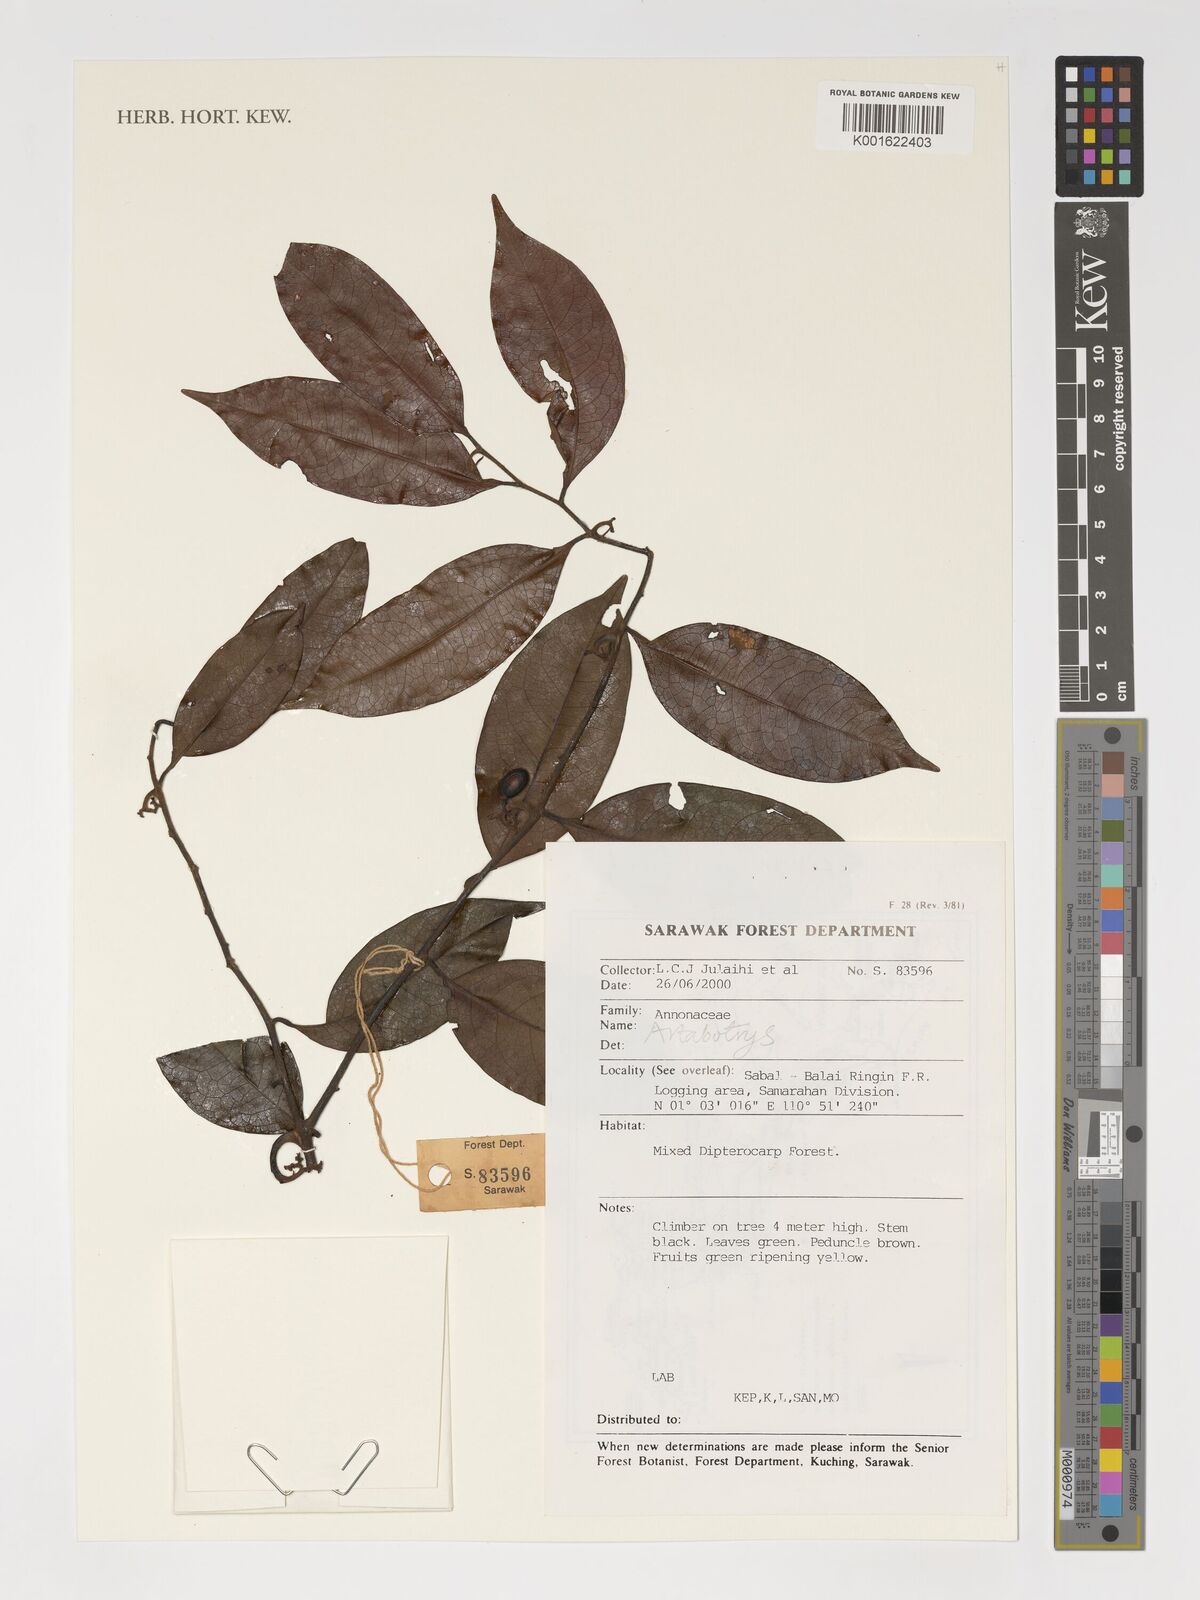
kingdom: Plantae
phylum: Tracheophyta
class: Magnoliopsida
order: Magnoliales
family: Annonaceae
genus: Artabotrys
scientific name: Artabotrys
